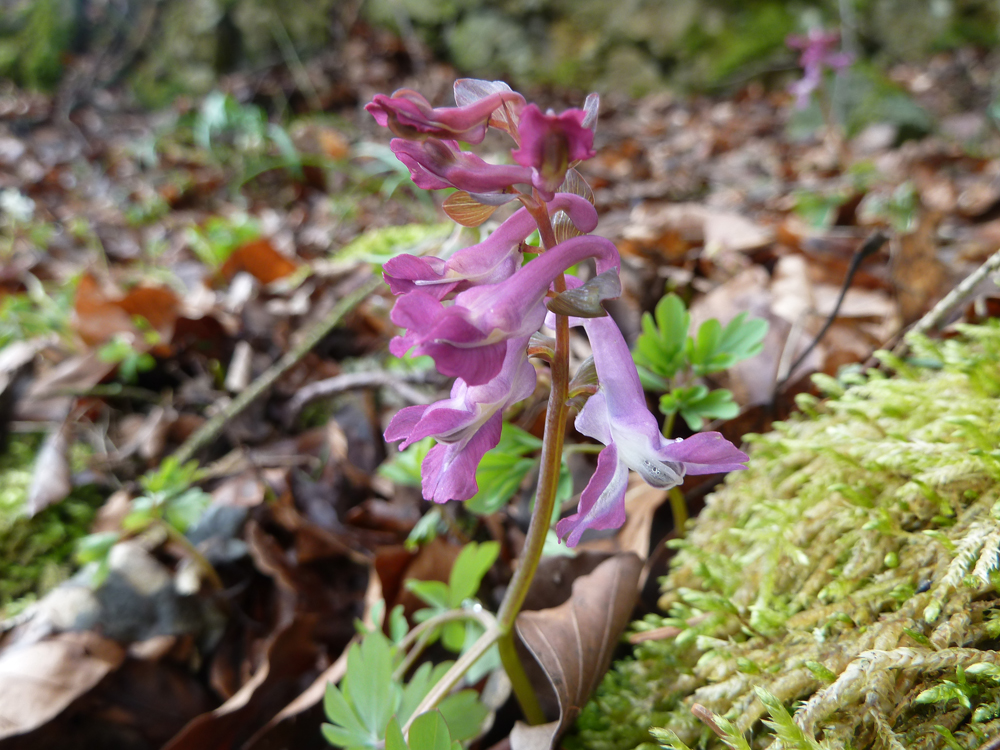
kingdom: Plantae
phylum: Tracheophyta
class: Magnoliopsida
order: Ranunculales
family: Papaveraceae
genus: Corydalis
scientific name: Corydalis cava
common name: Hollowroot
